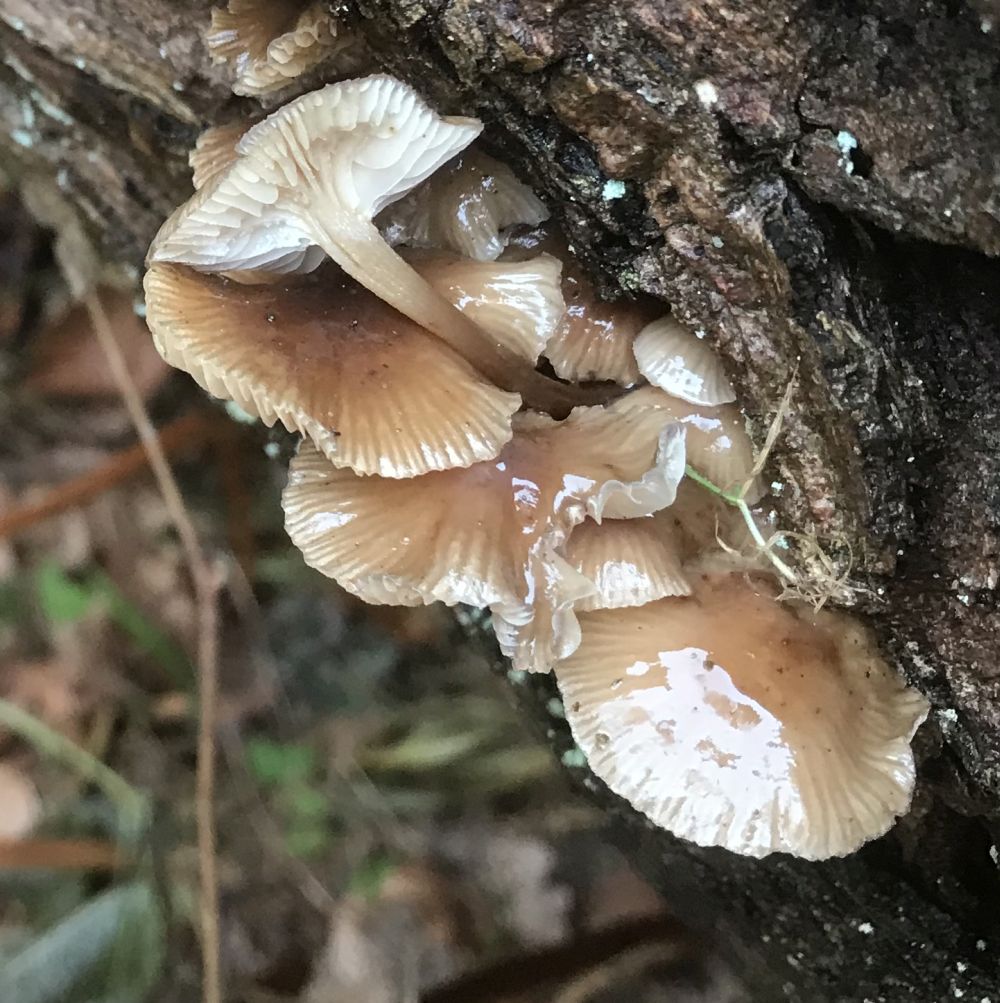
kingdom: Fungi
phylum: Basidiomycota
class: Agaricomycetes
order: Agaricales
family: Mycenaceae
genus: Mycena
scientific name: Mycena tintinnabulum
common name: vinter-huesvamp
